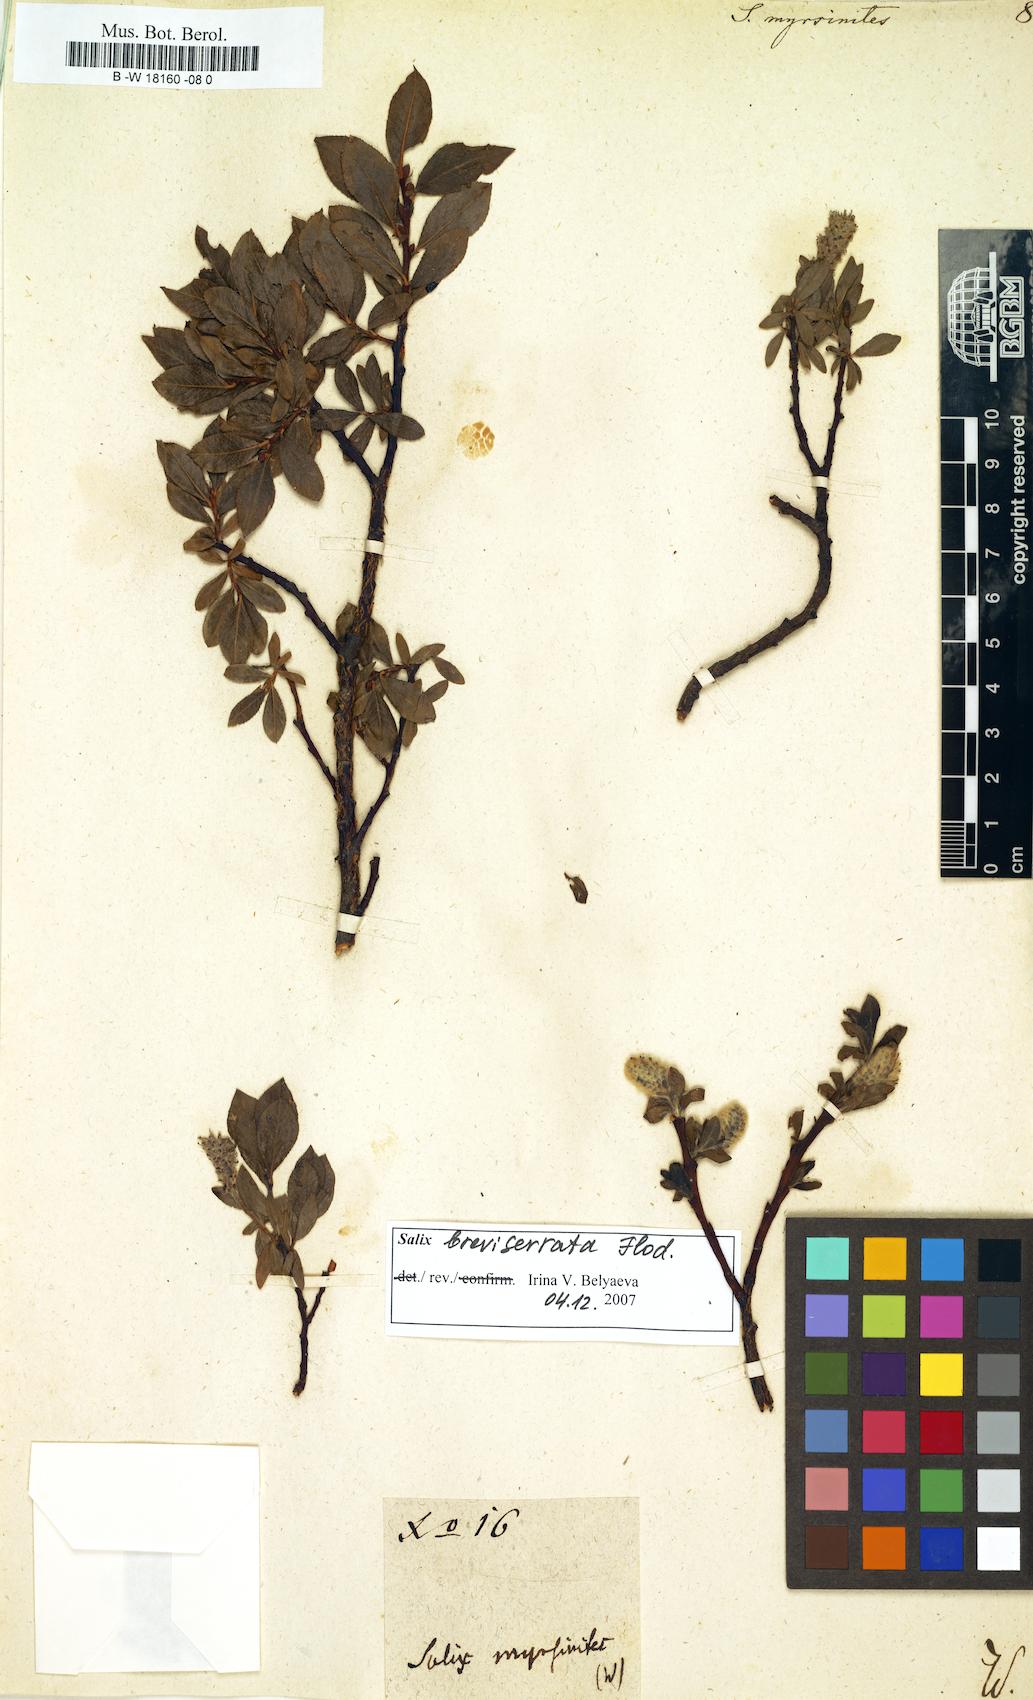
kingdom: Plantae
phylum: Tracheophyta
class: Magnoliopsida
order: Malpighiales
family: Salicaceae
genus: Salix
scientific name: Salix myrsinites
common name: Myrtle willow
